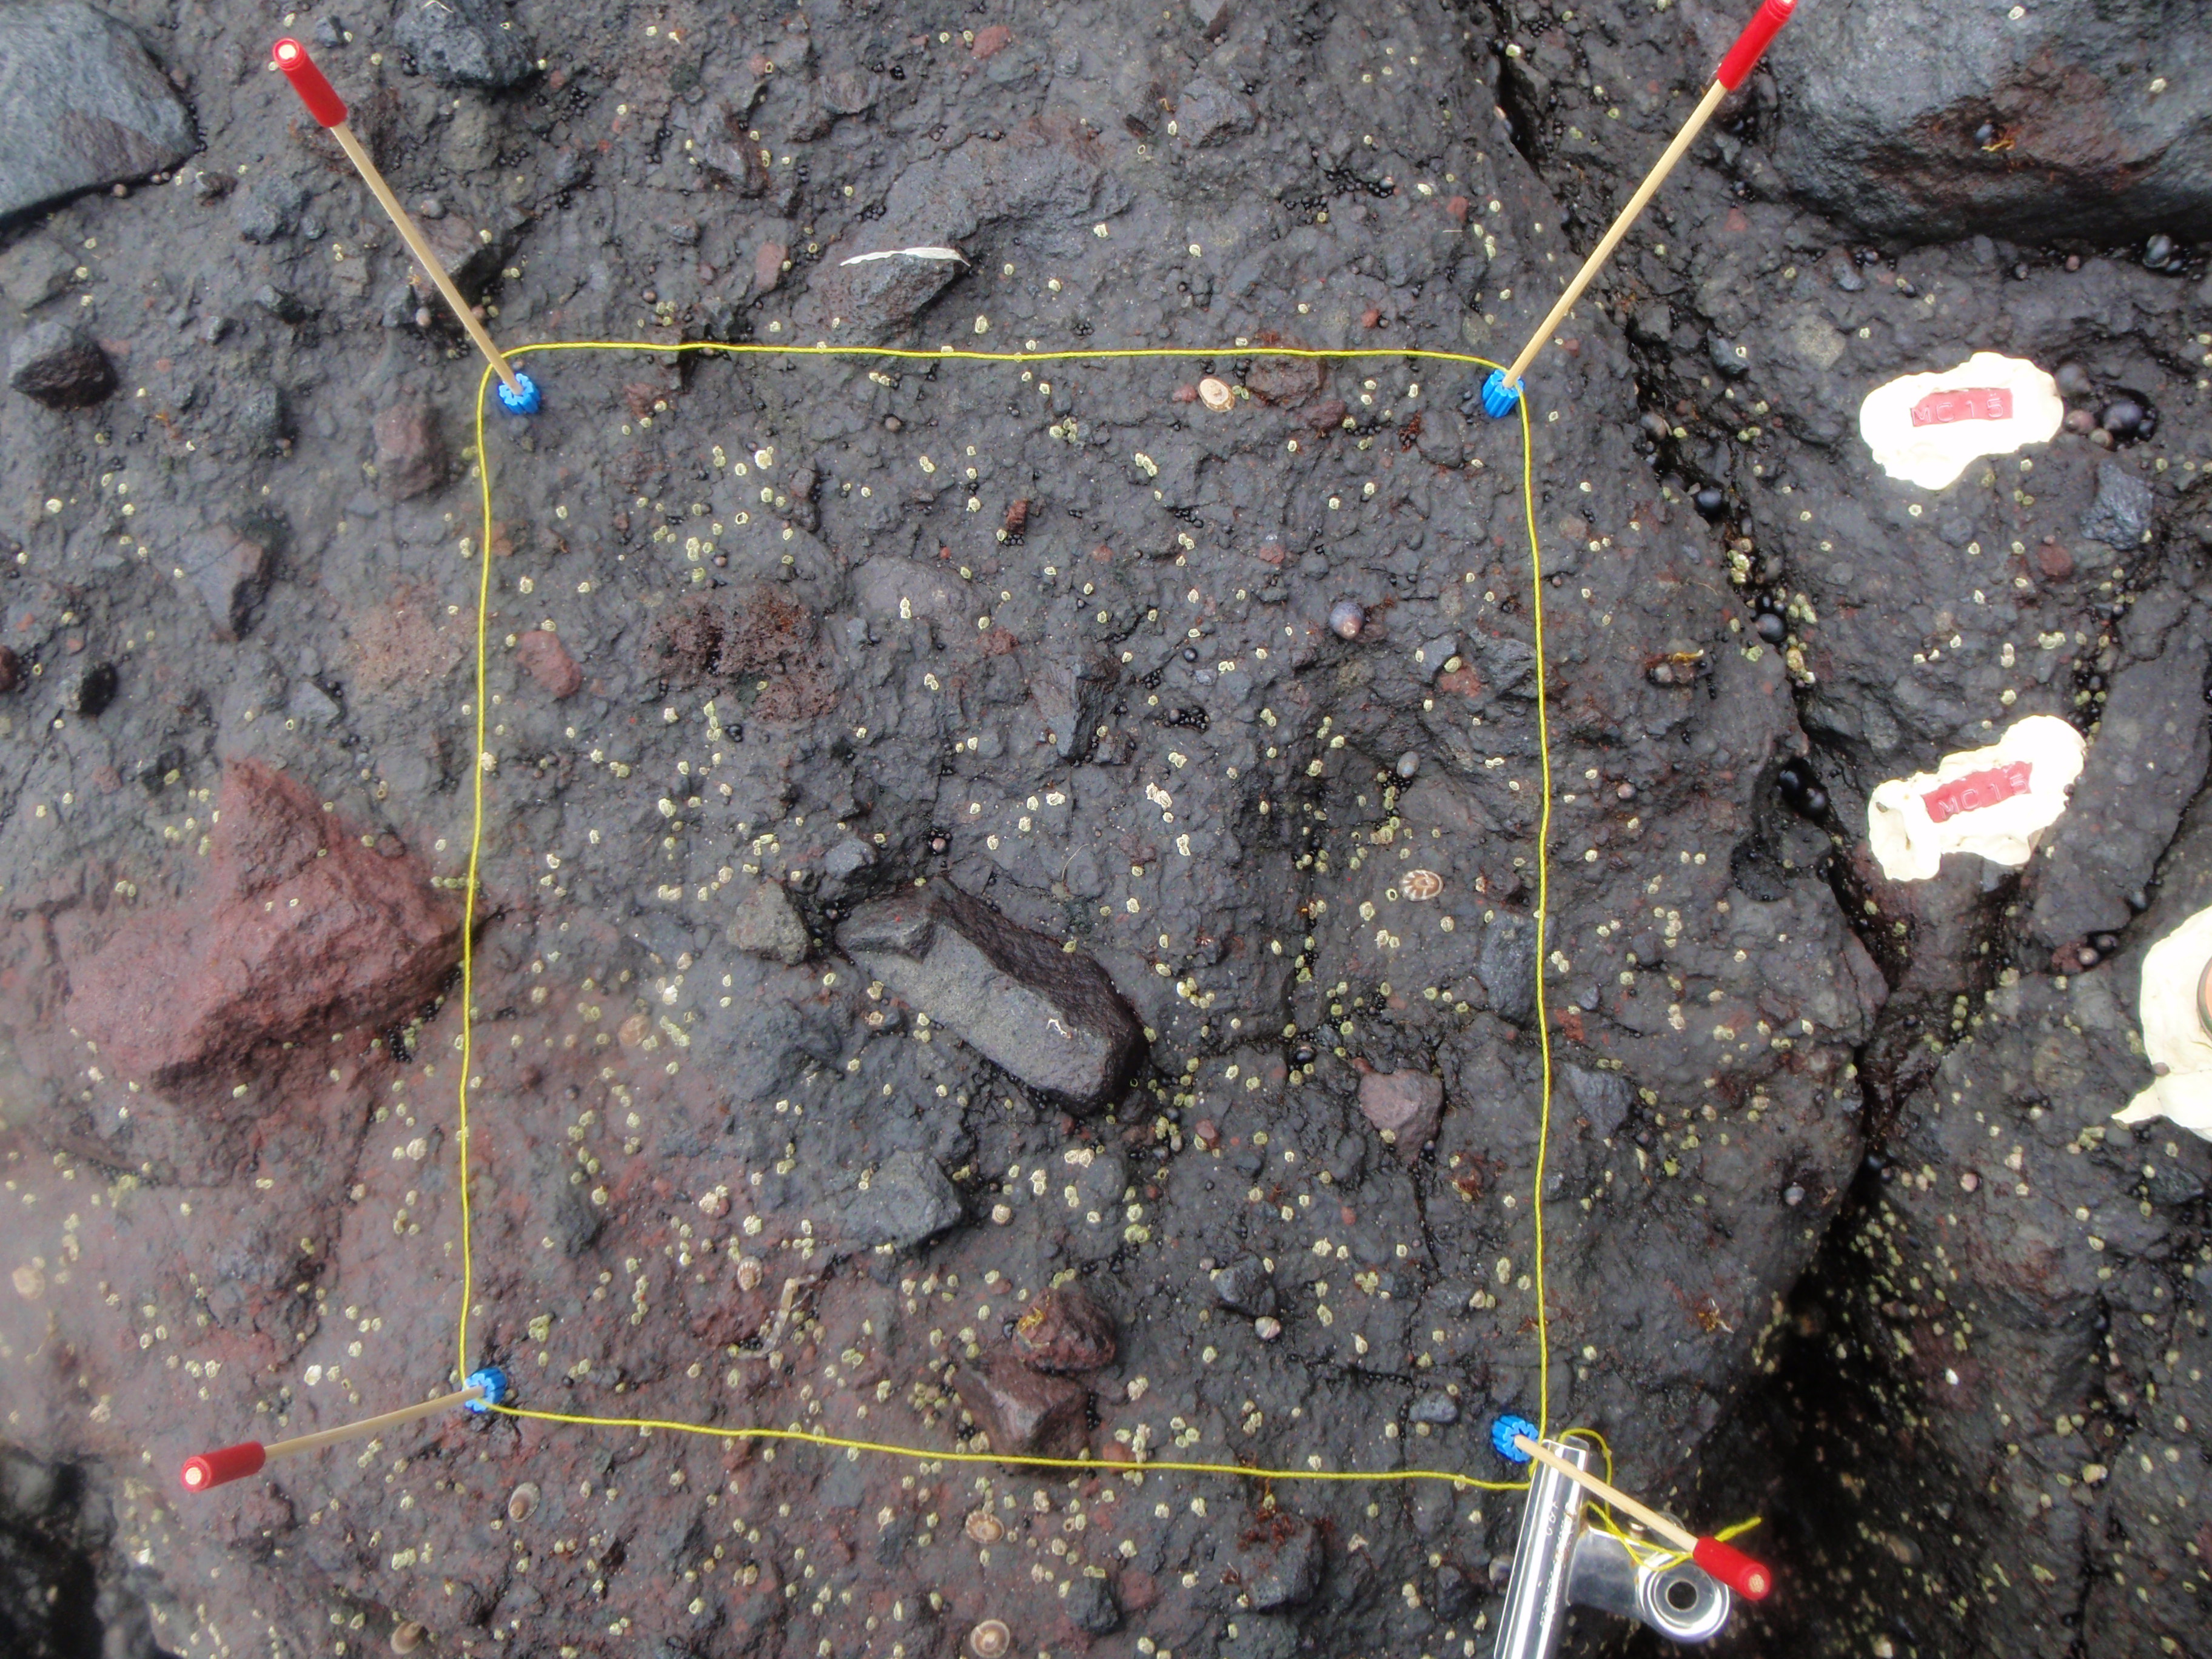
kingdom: Plantae
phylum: Rhodophyta
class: Florideophyceae
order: Gigartinales
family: Endocladiaceae
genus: Gloiopeltis
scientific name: Gloiopeltis furcata
